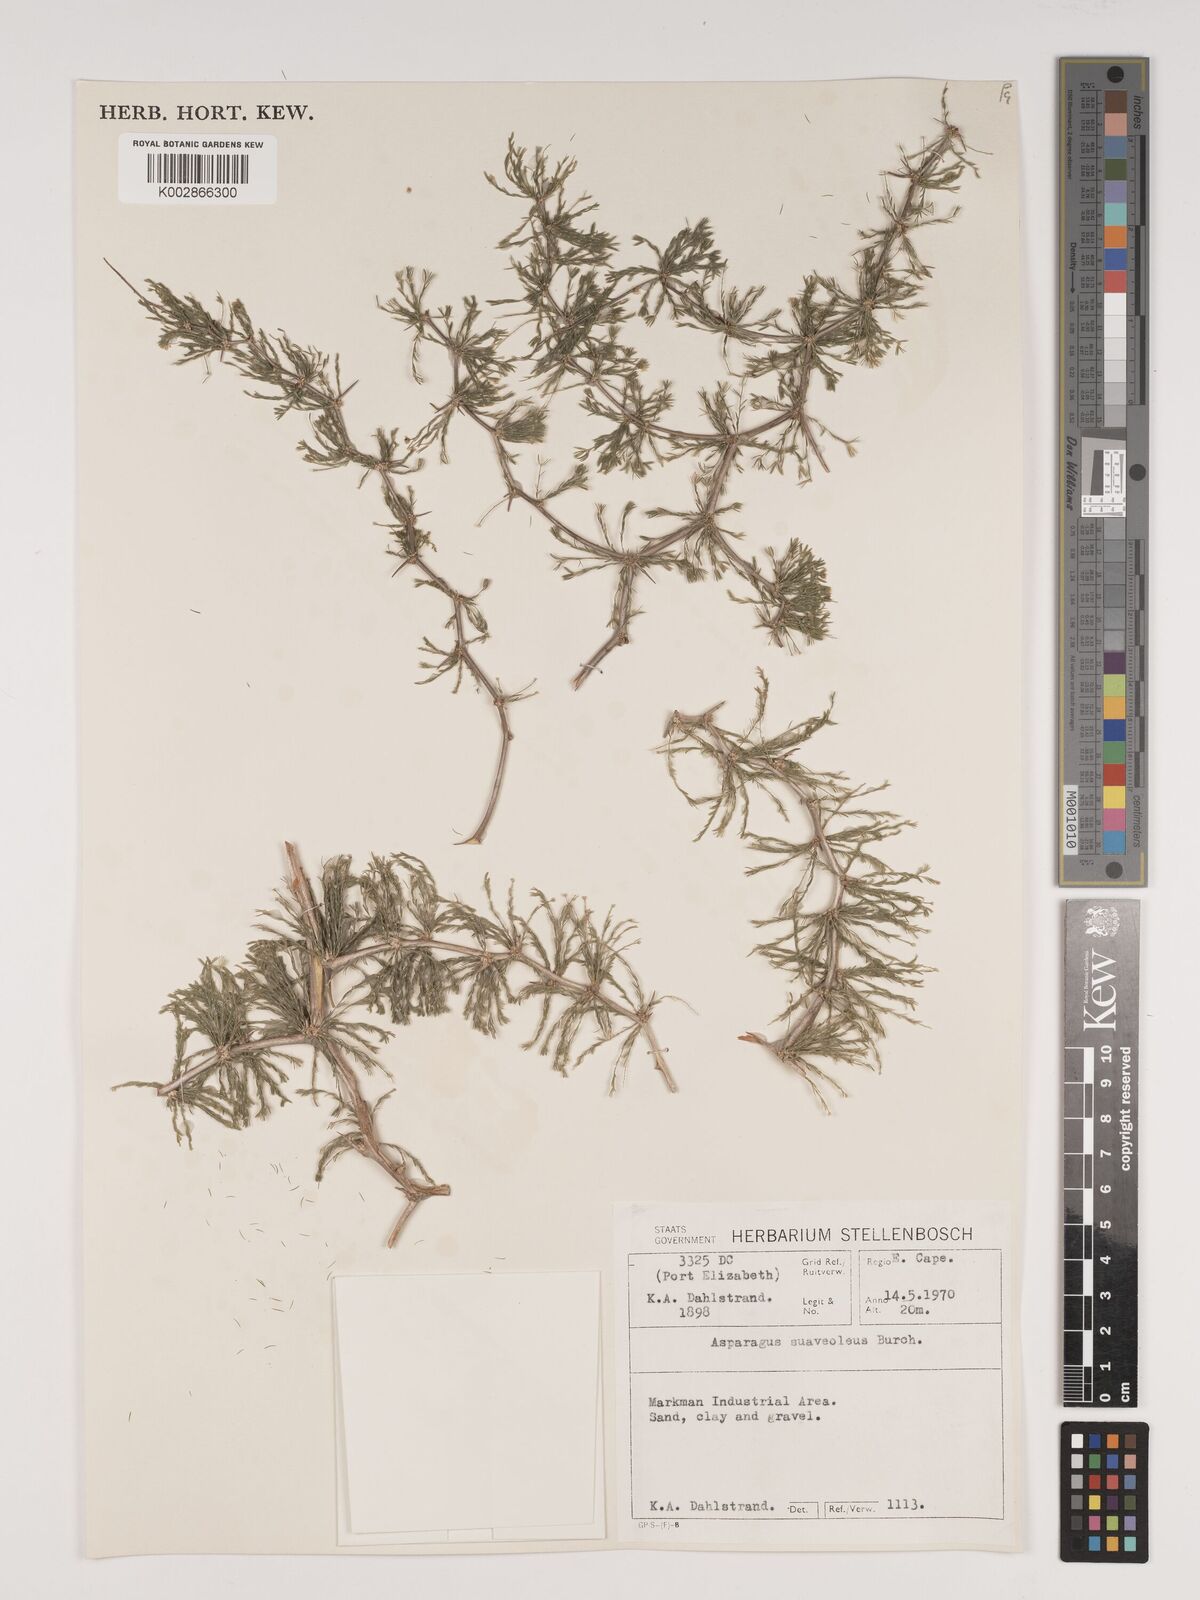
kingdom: Plantae
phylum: Tracheophyta
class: Liliopsida
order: Asparagales
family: Asparagaceae
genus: Asparagus
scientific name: Asparagus suaveolens
